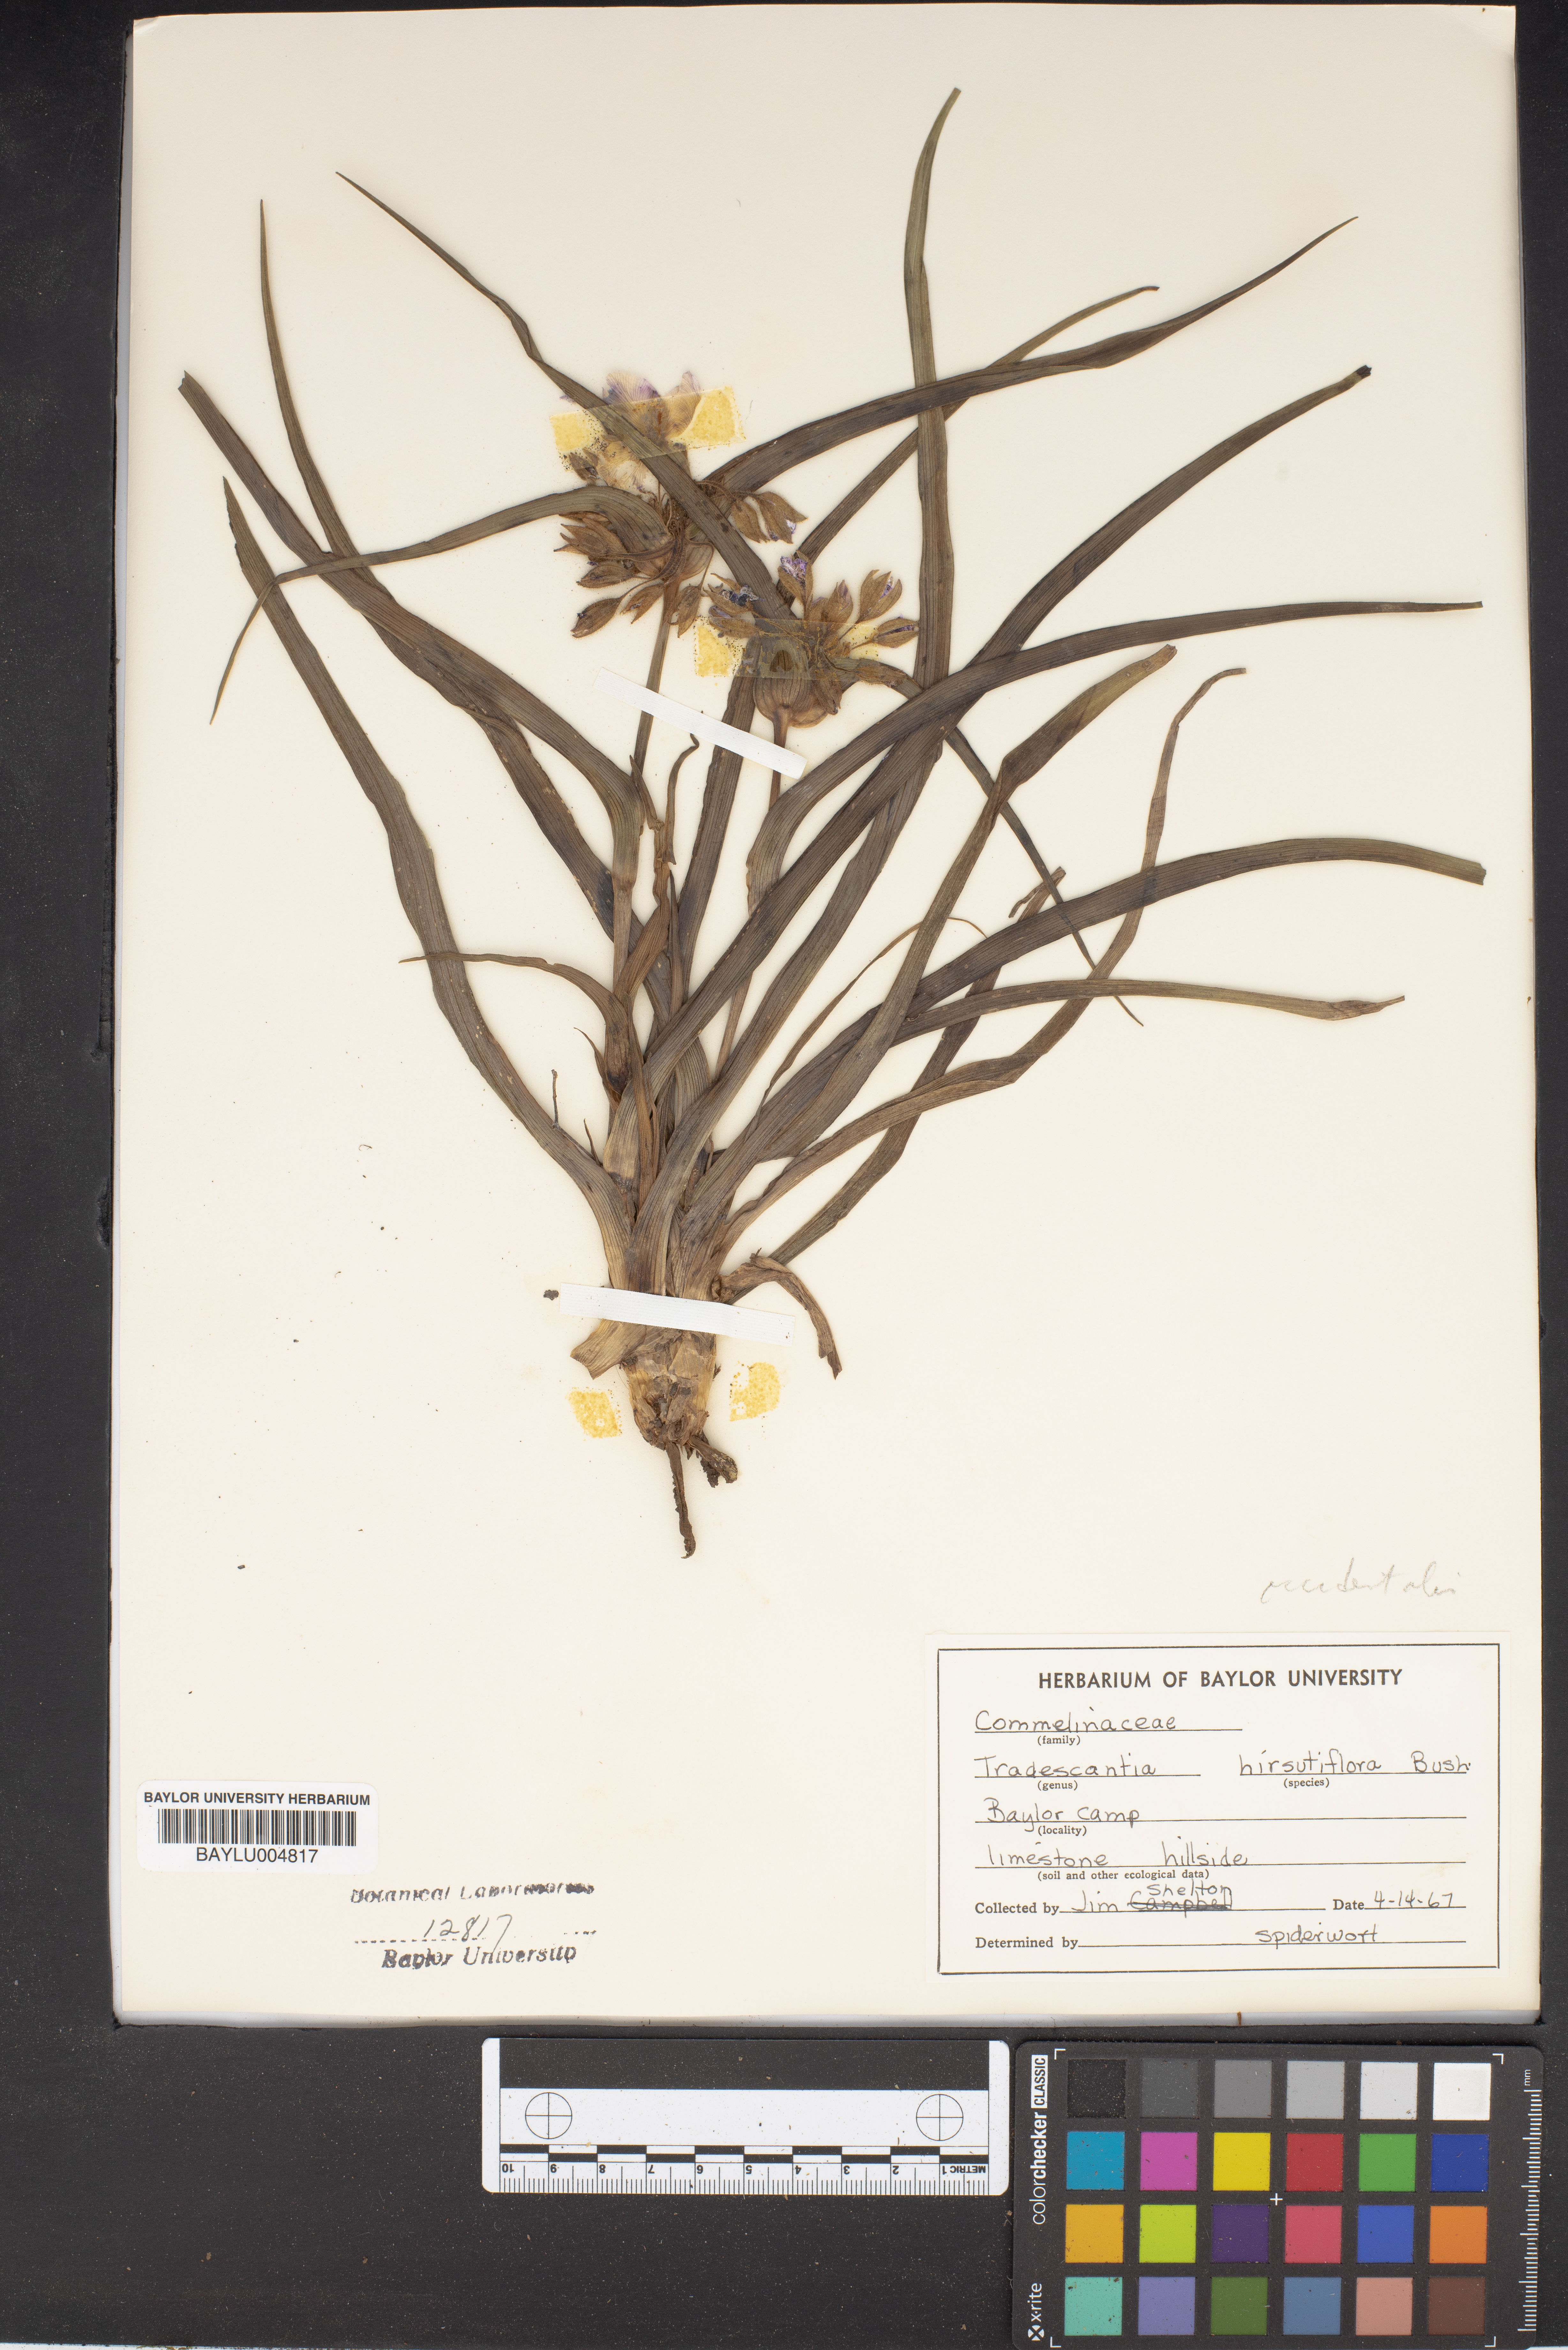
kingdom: Plantae
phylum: Tracheophyta
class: Liliopsida
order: Commelinales
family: Commelinaceae
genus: Tradescantia
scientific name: Tradescantia hirsutiflora
